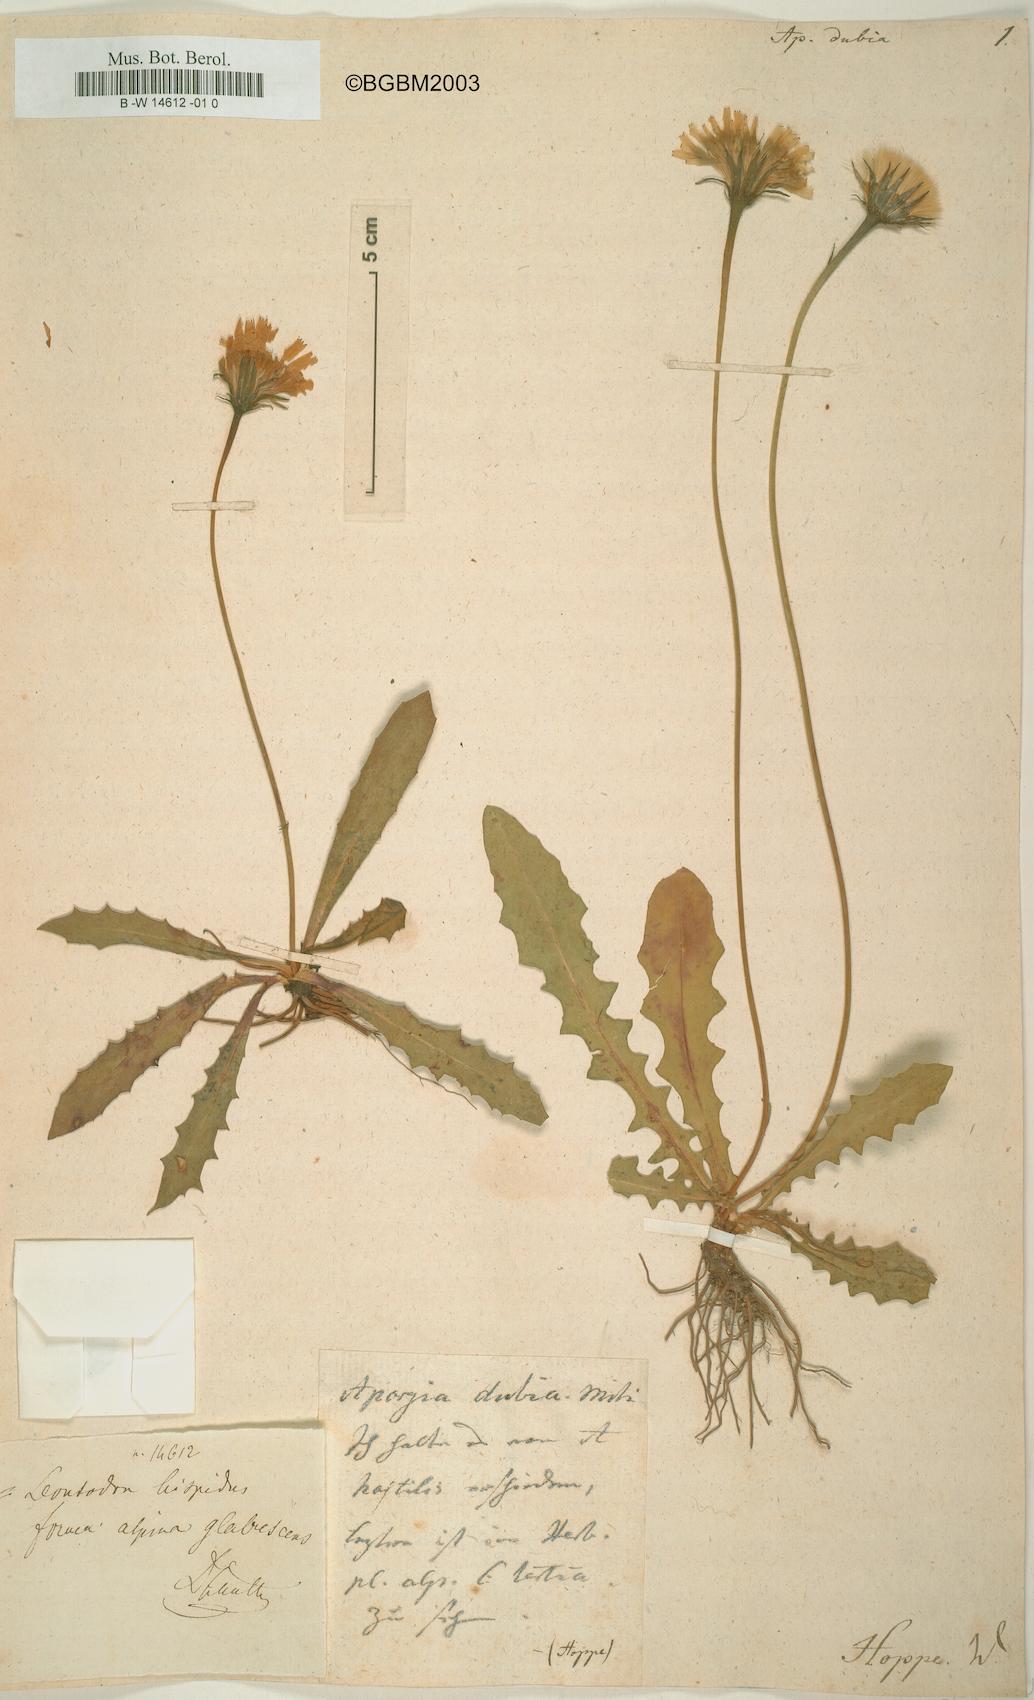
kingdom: Plantae
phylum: Tracheophyta
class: Magnoliopsida
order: Asterales
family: Asteraceae
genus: Leontodon
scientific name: Leontodon
